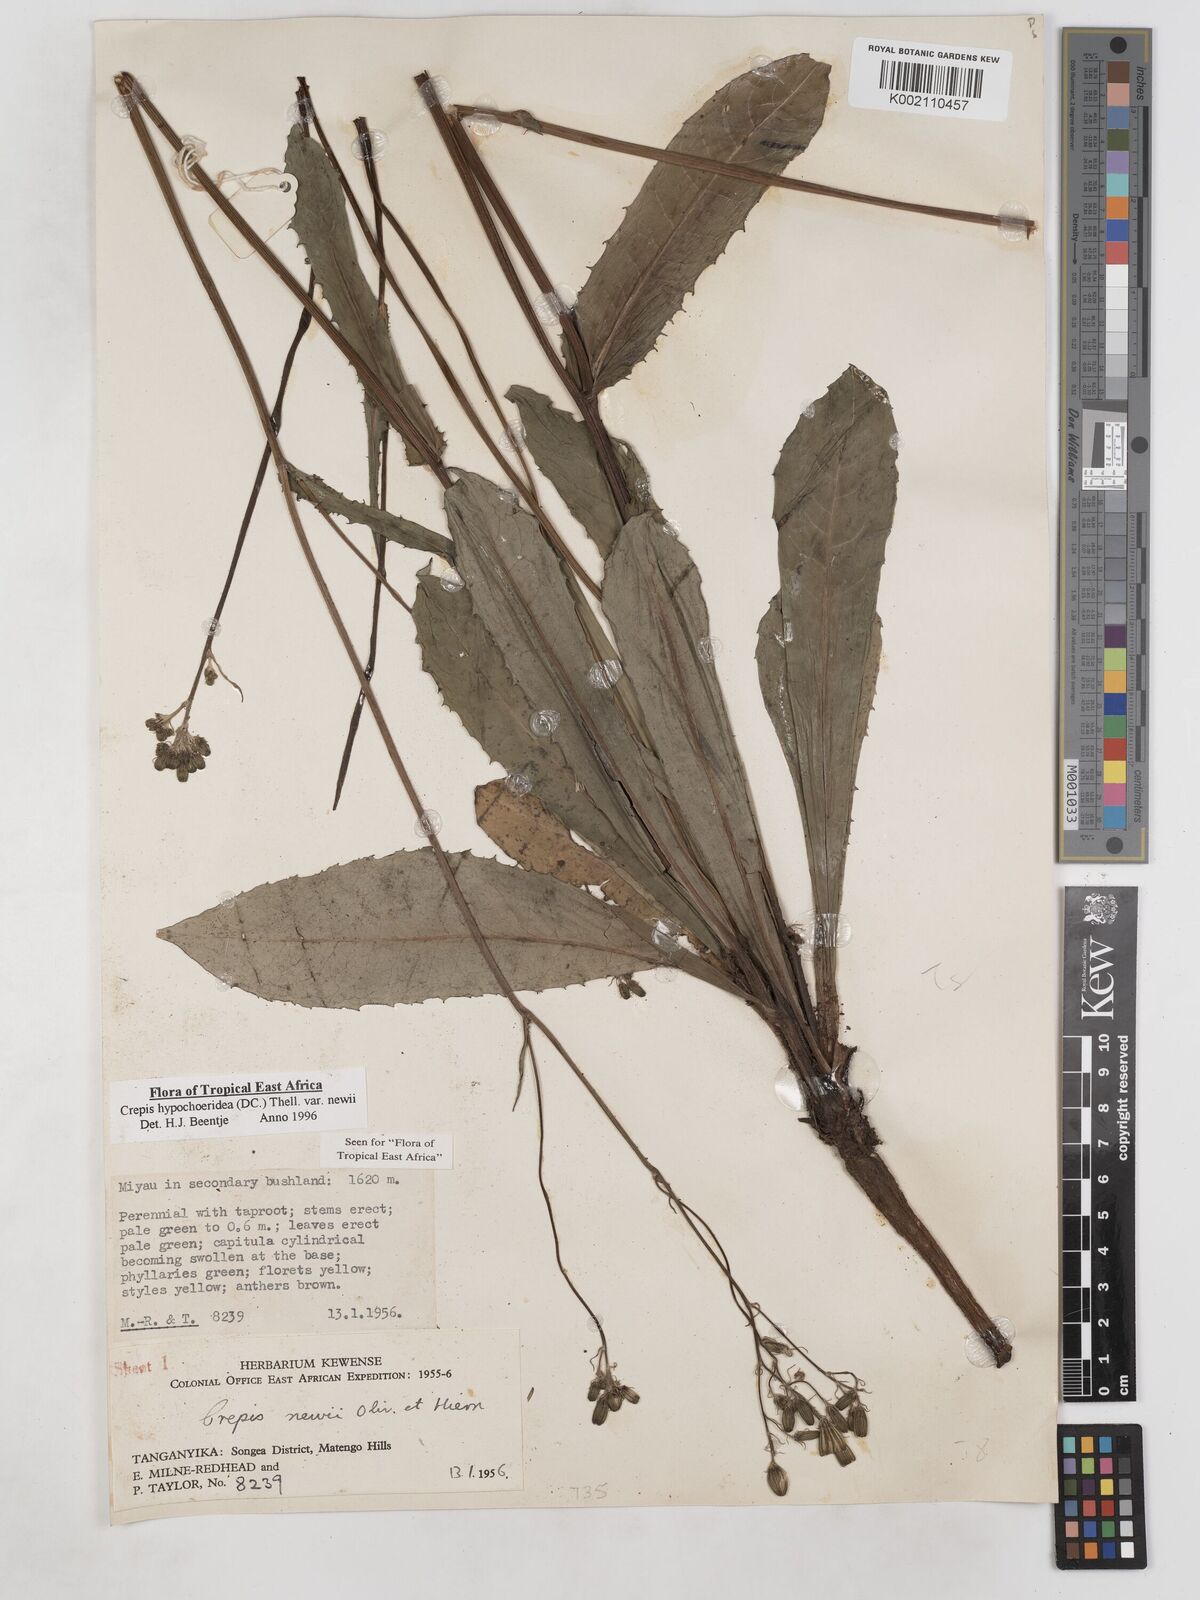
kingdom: Plantae
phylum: Tracheophyta
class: Magnoliopsida
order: Asterales
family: Asteraceae
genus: Crepis
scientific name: Crepis hypochoeridea
